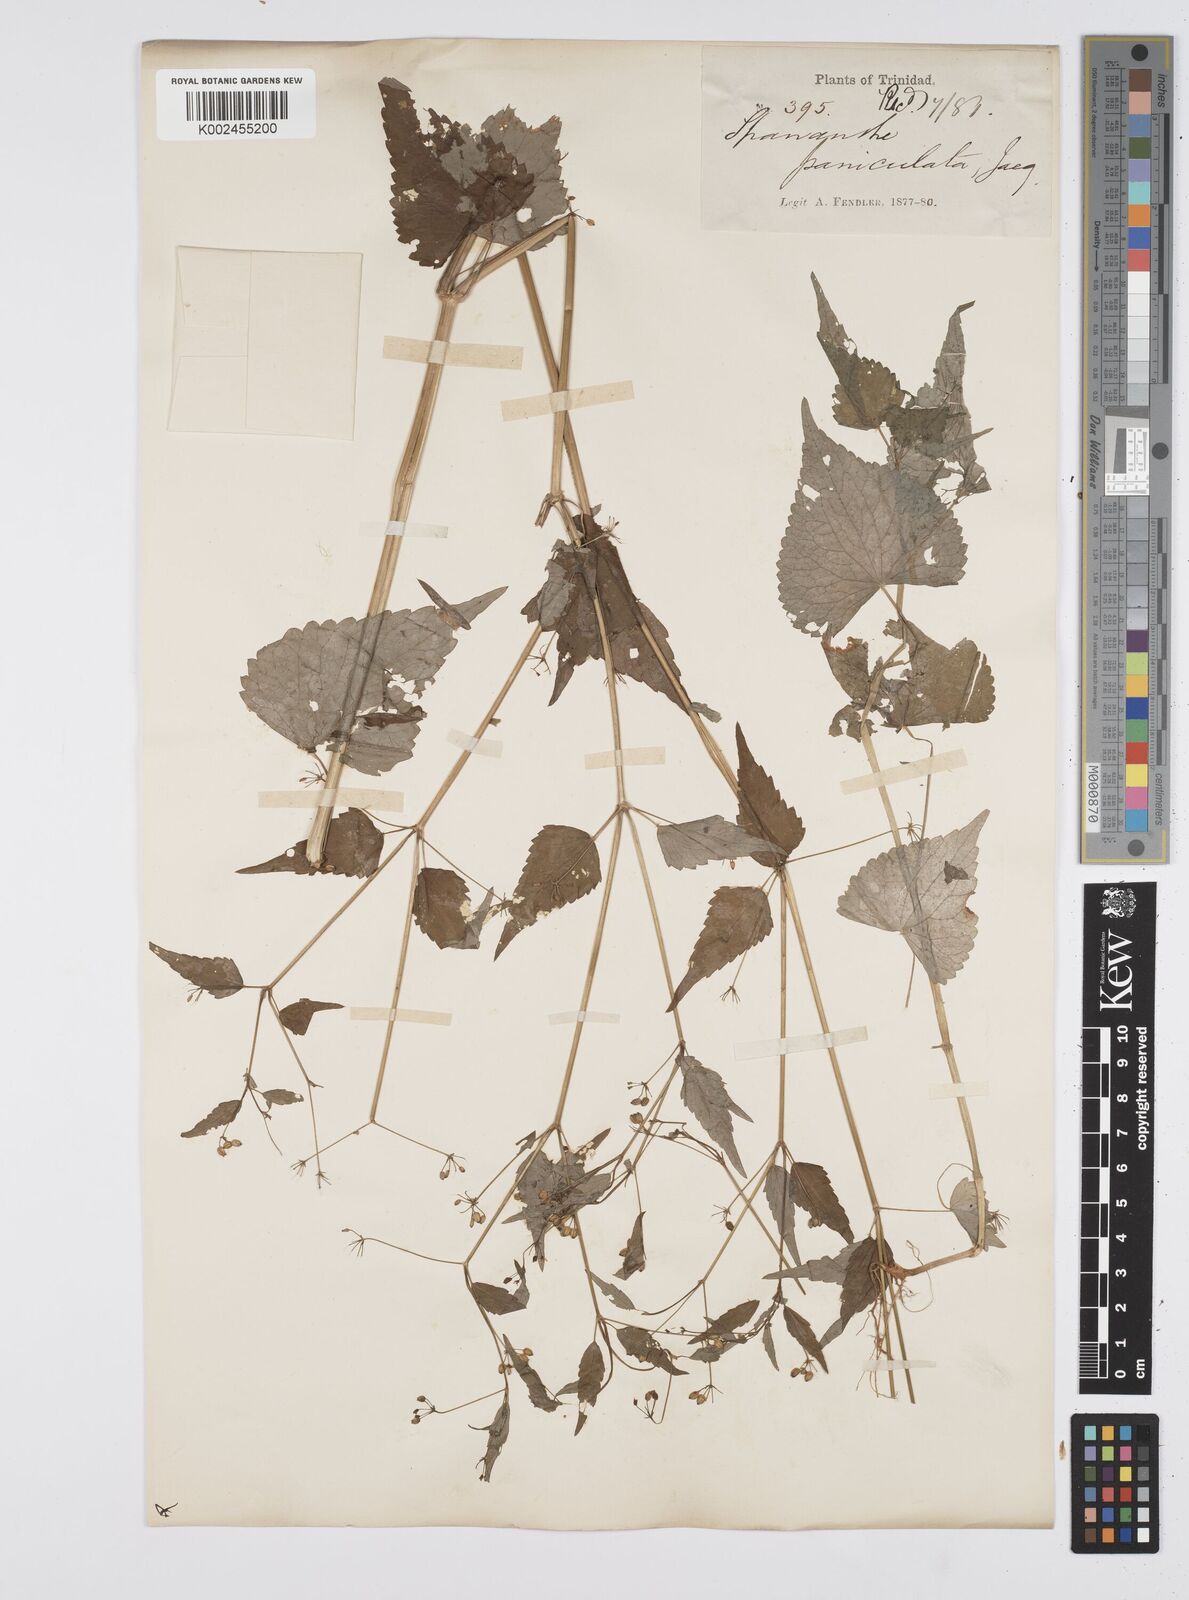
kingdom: Plantae
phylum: Tracheophyta
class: Magnoliopsida
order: Apiales
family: Apiaceae
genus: Azorella
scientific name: Azorella
